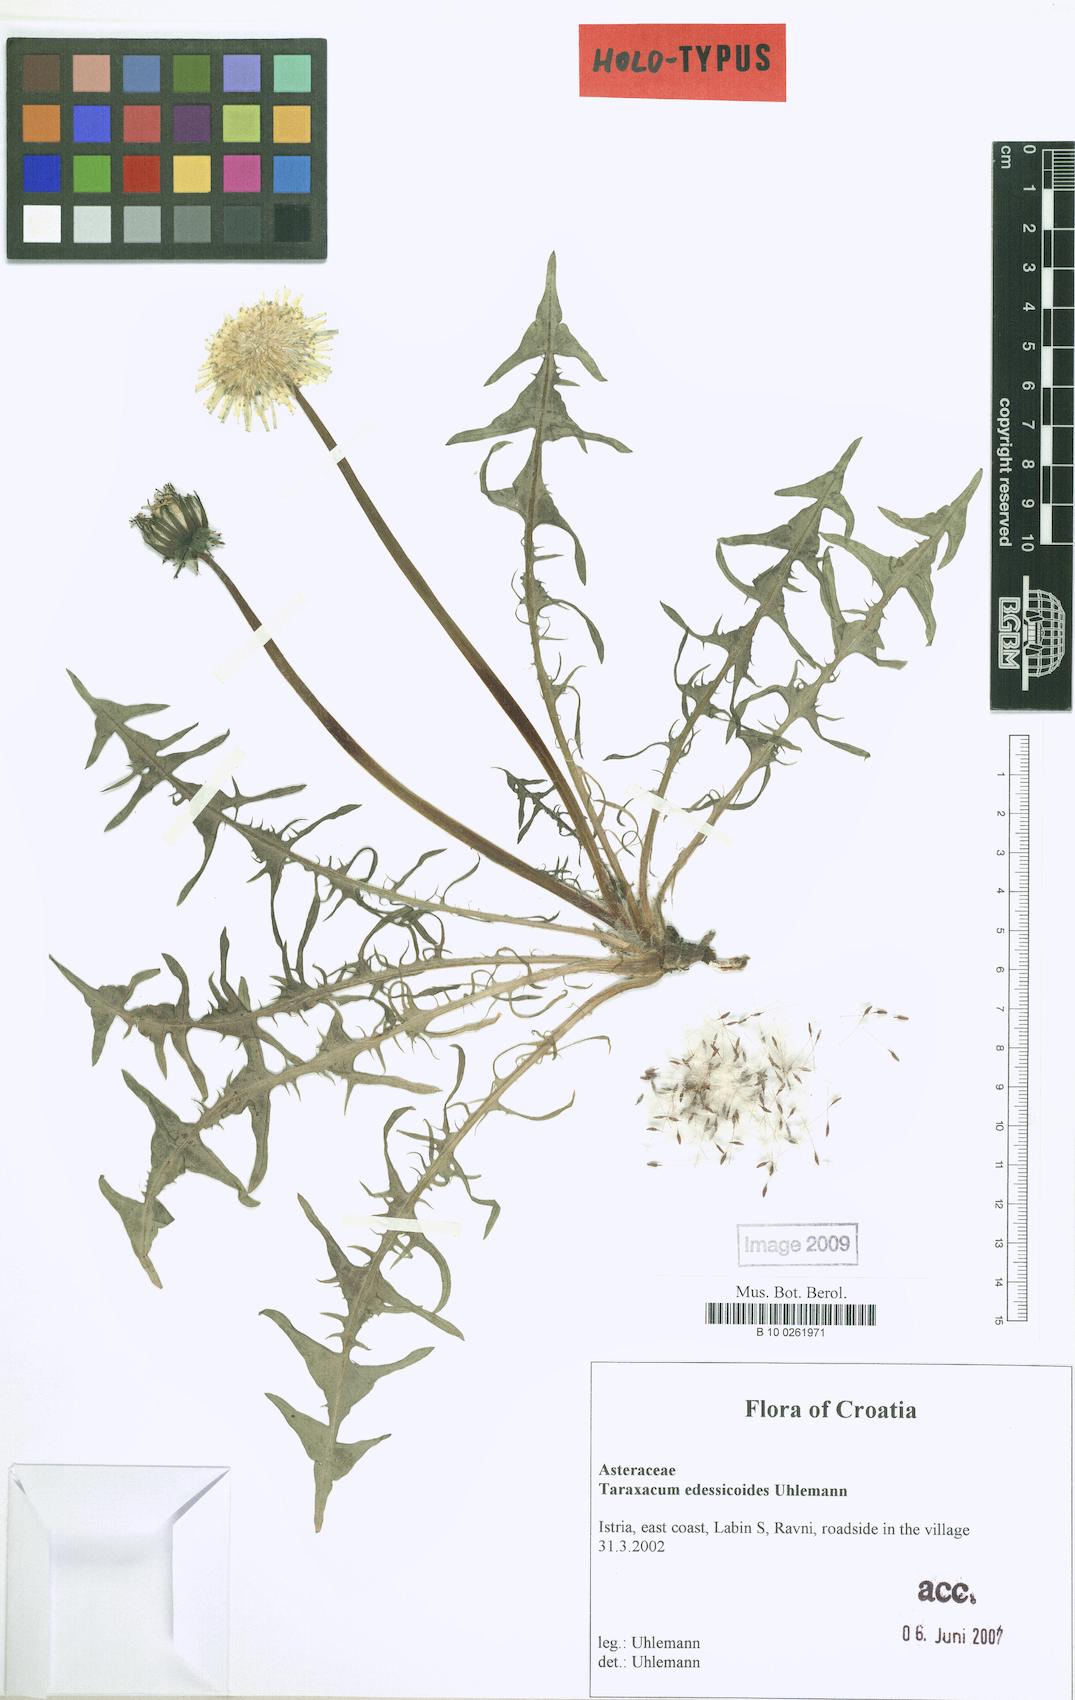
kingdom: Plantae
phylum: Tracheophyta
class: Magnoliopsida
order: Asterales
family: Asteraceae
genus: Taraxacum
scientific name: Taraxacum edessicoides
